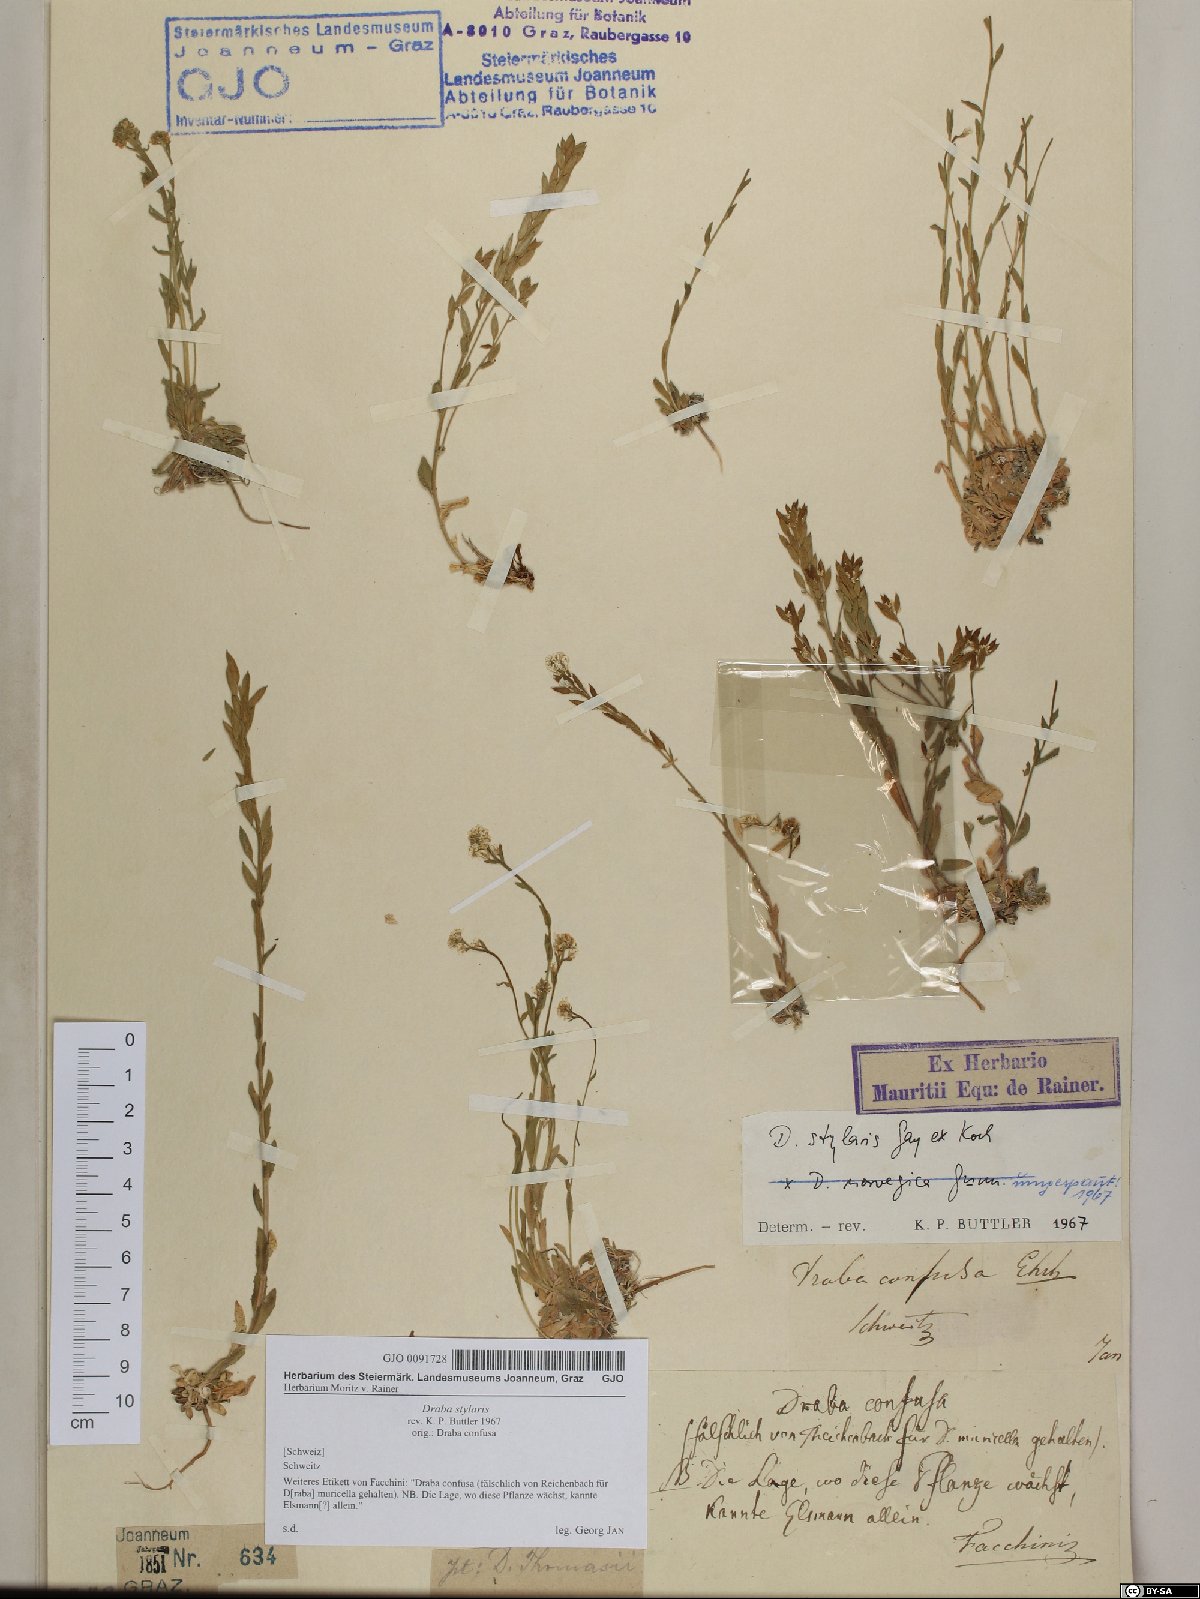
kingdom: Plantae
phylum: Tracheophyta
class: Magnoliopsida
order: Brassicales
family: Brassicaceae
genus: Draba
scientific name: Draba thomasii
